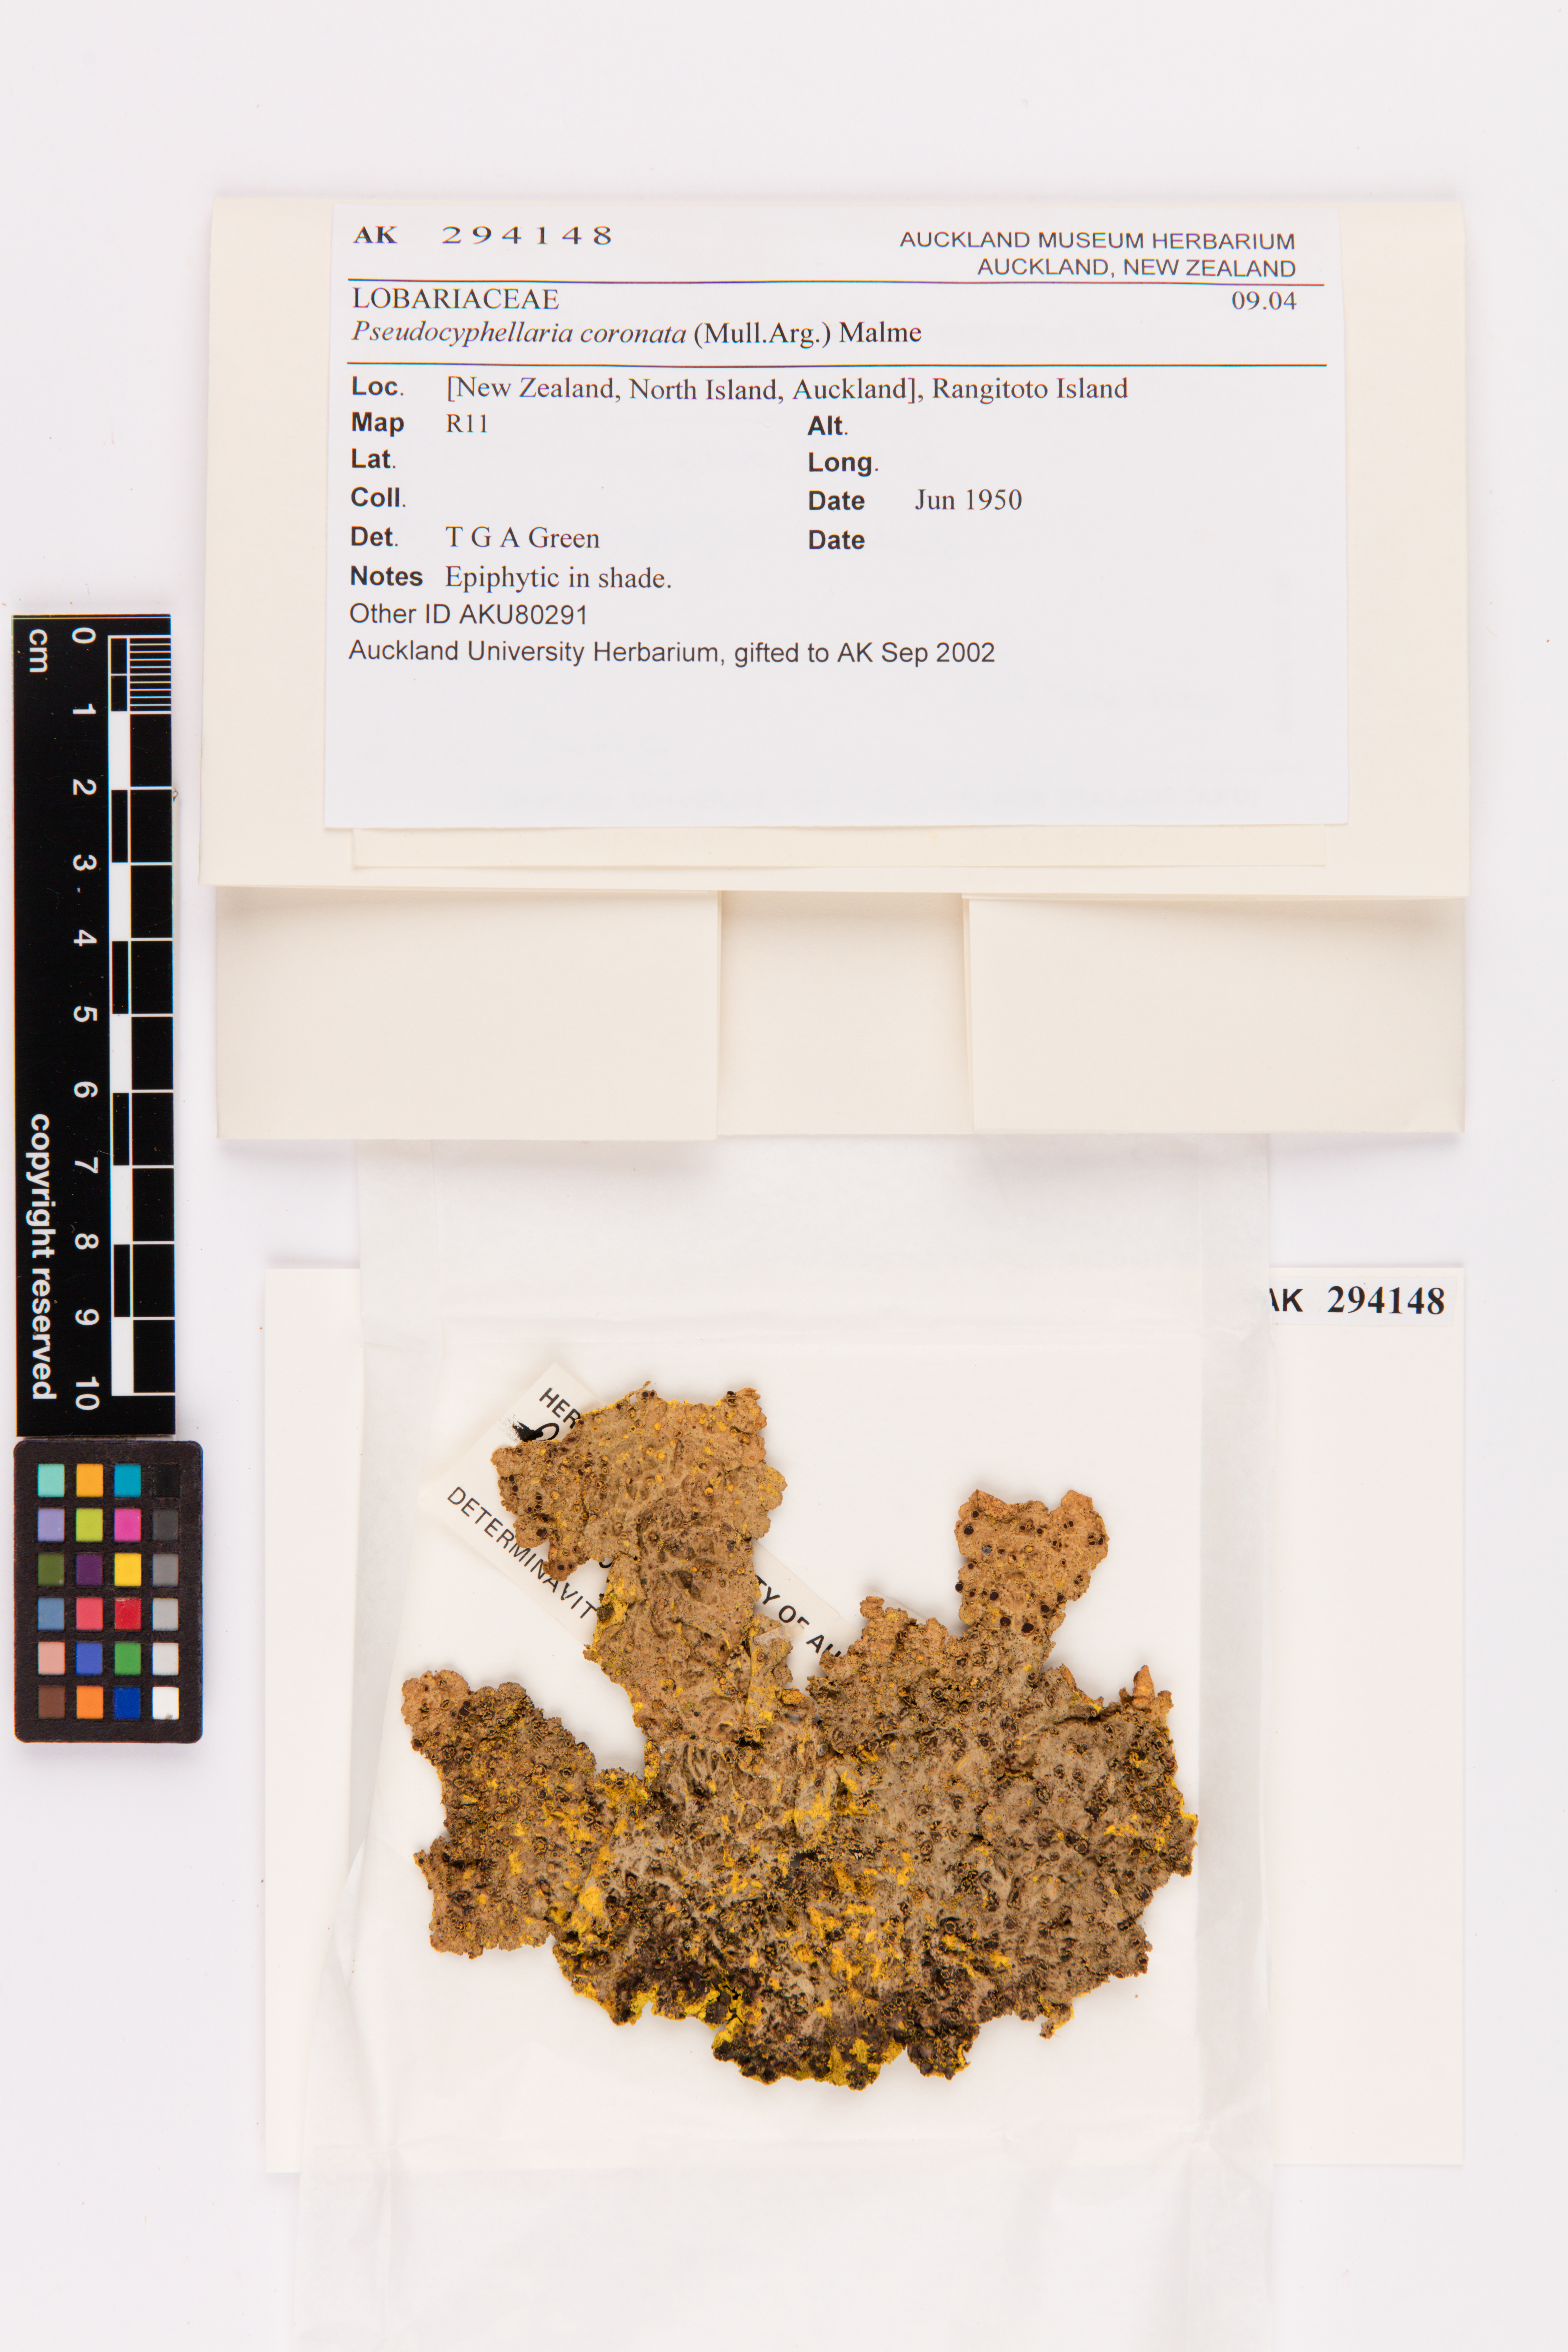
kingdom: Fungi
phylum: Ascomycota
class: Lecanoromycetes
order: Peltigerales
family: Lobariaceae
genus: Yarrumia
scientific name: Yarrumia coronata
